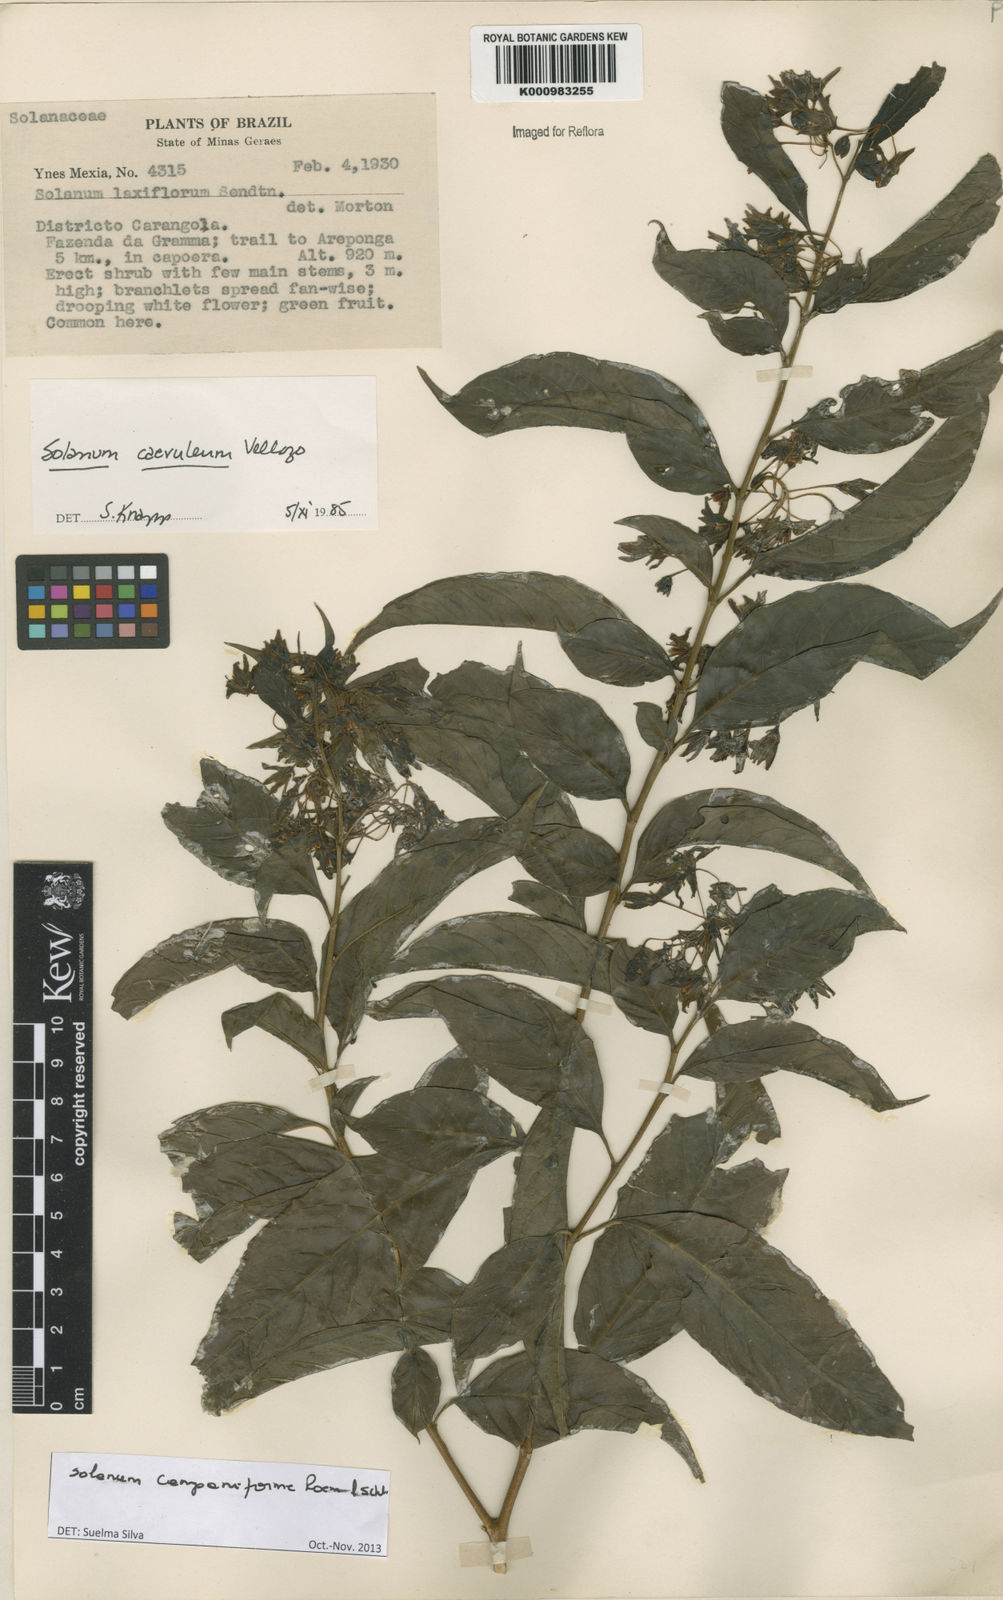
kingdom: Plantae
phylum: Tracheophyta
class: Magnoliopsida
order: Solanales
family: Solanaceae
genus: Solanum
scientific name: Solanum campaniforme
